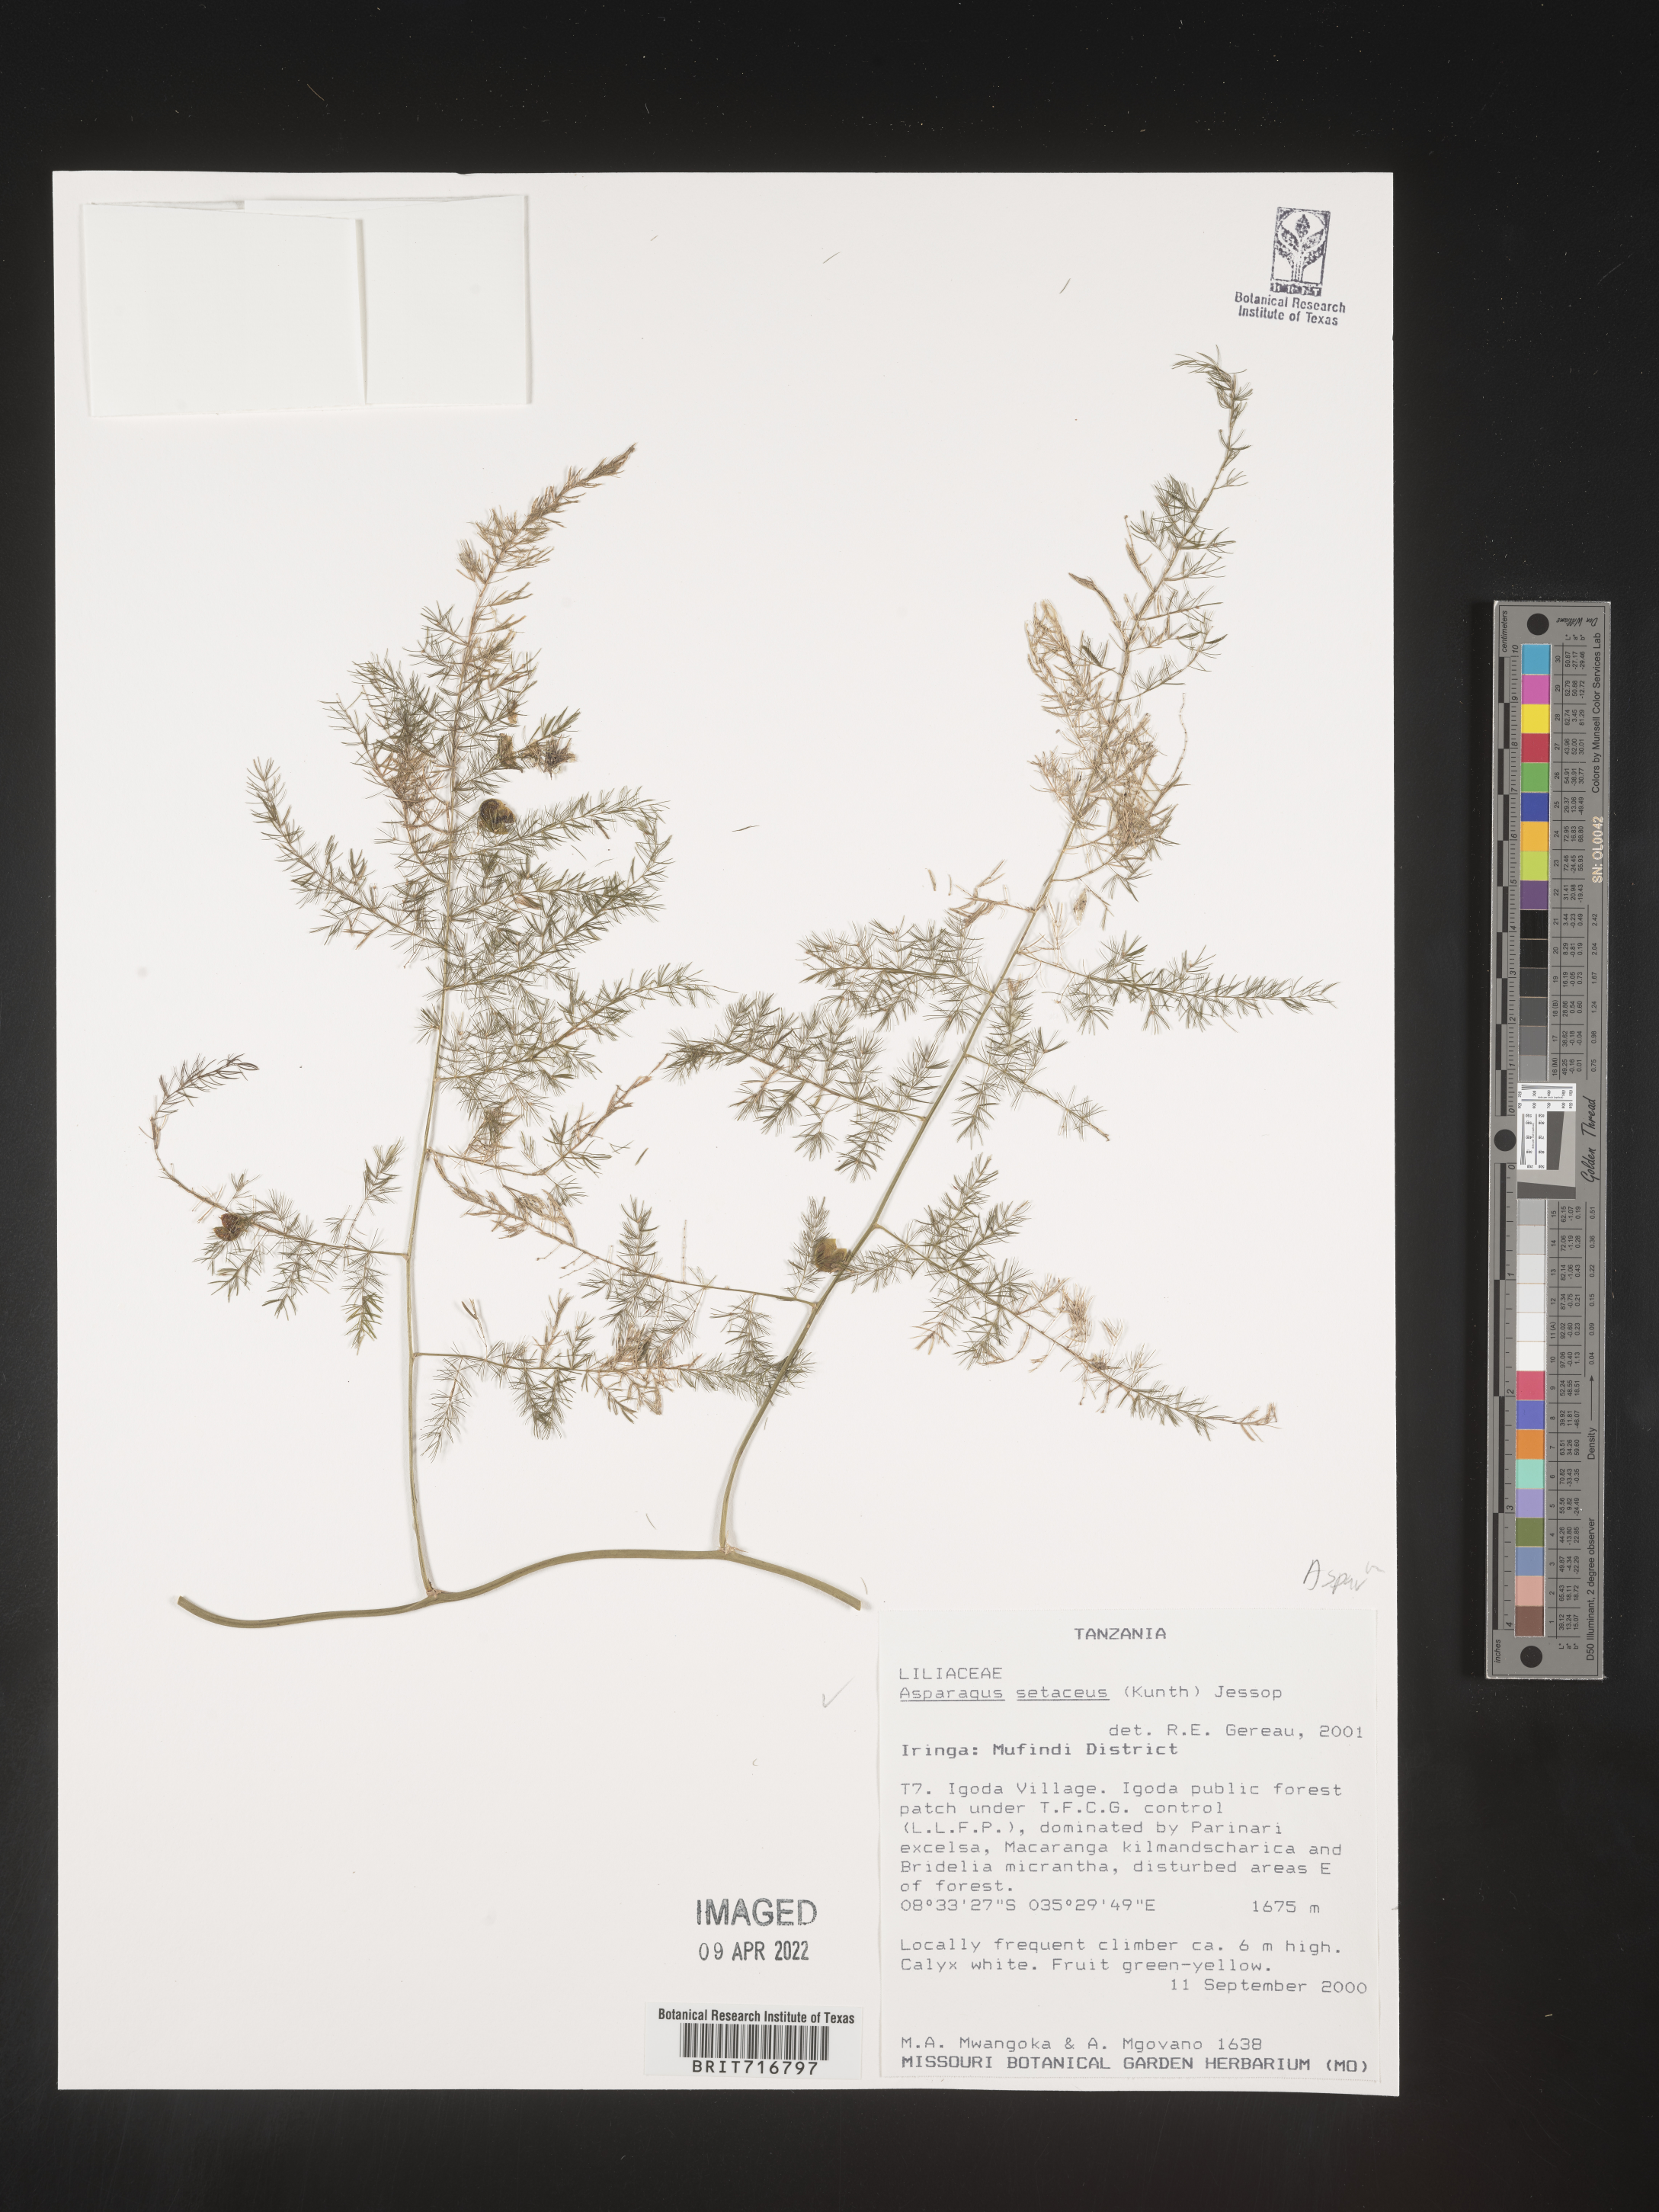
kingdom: Plantae
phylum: Tracheophyta
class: Liliopsida
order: Asparagales
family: Asparagaceae
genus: Asparagus
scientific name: Asparagus
